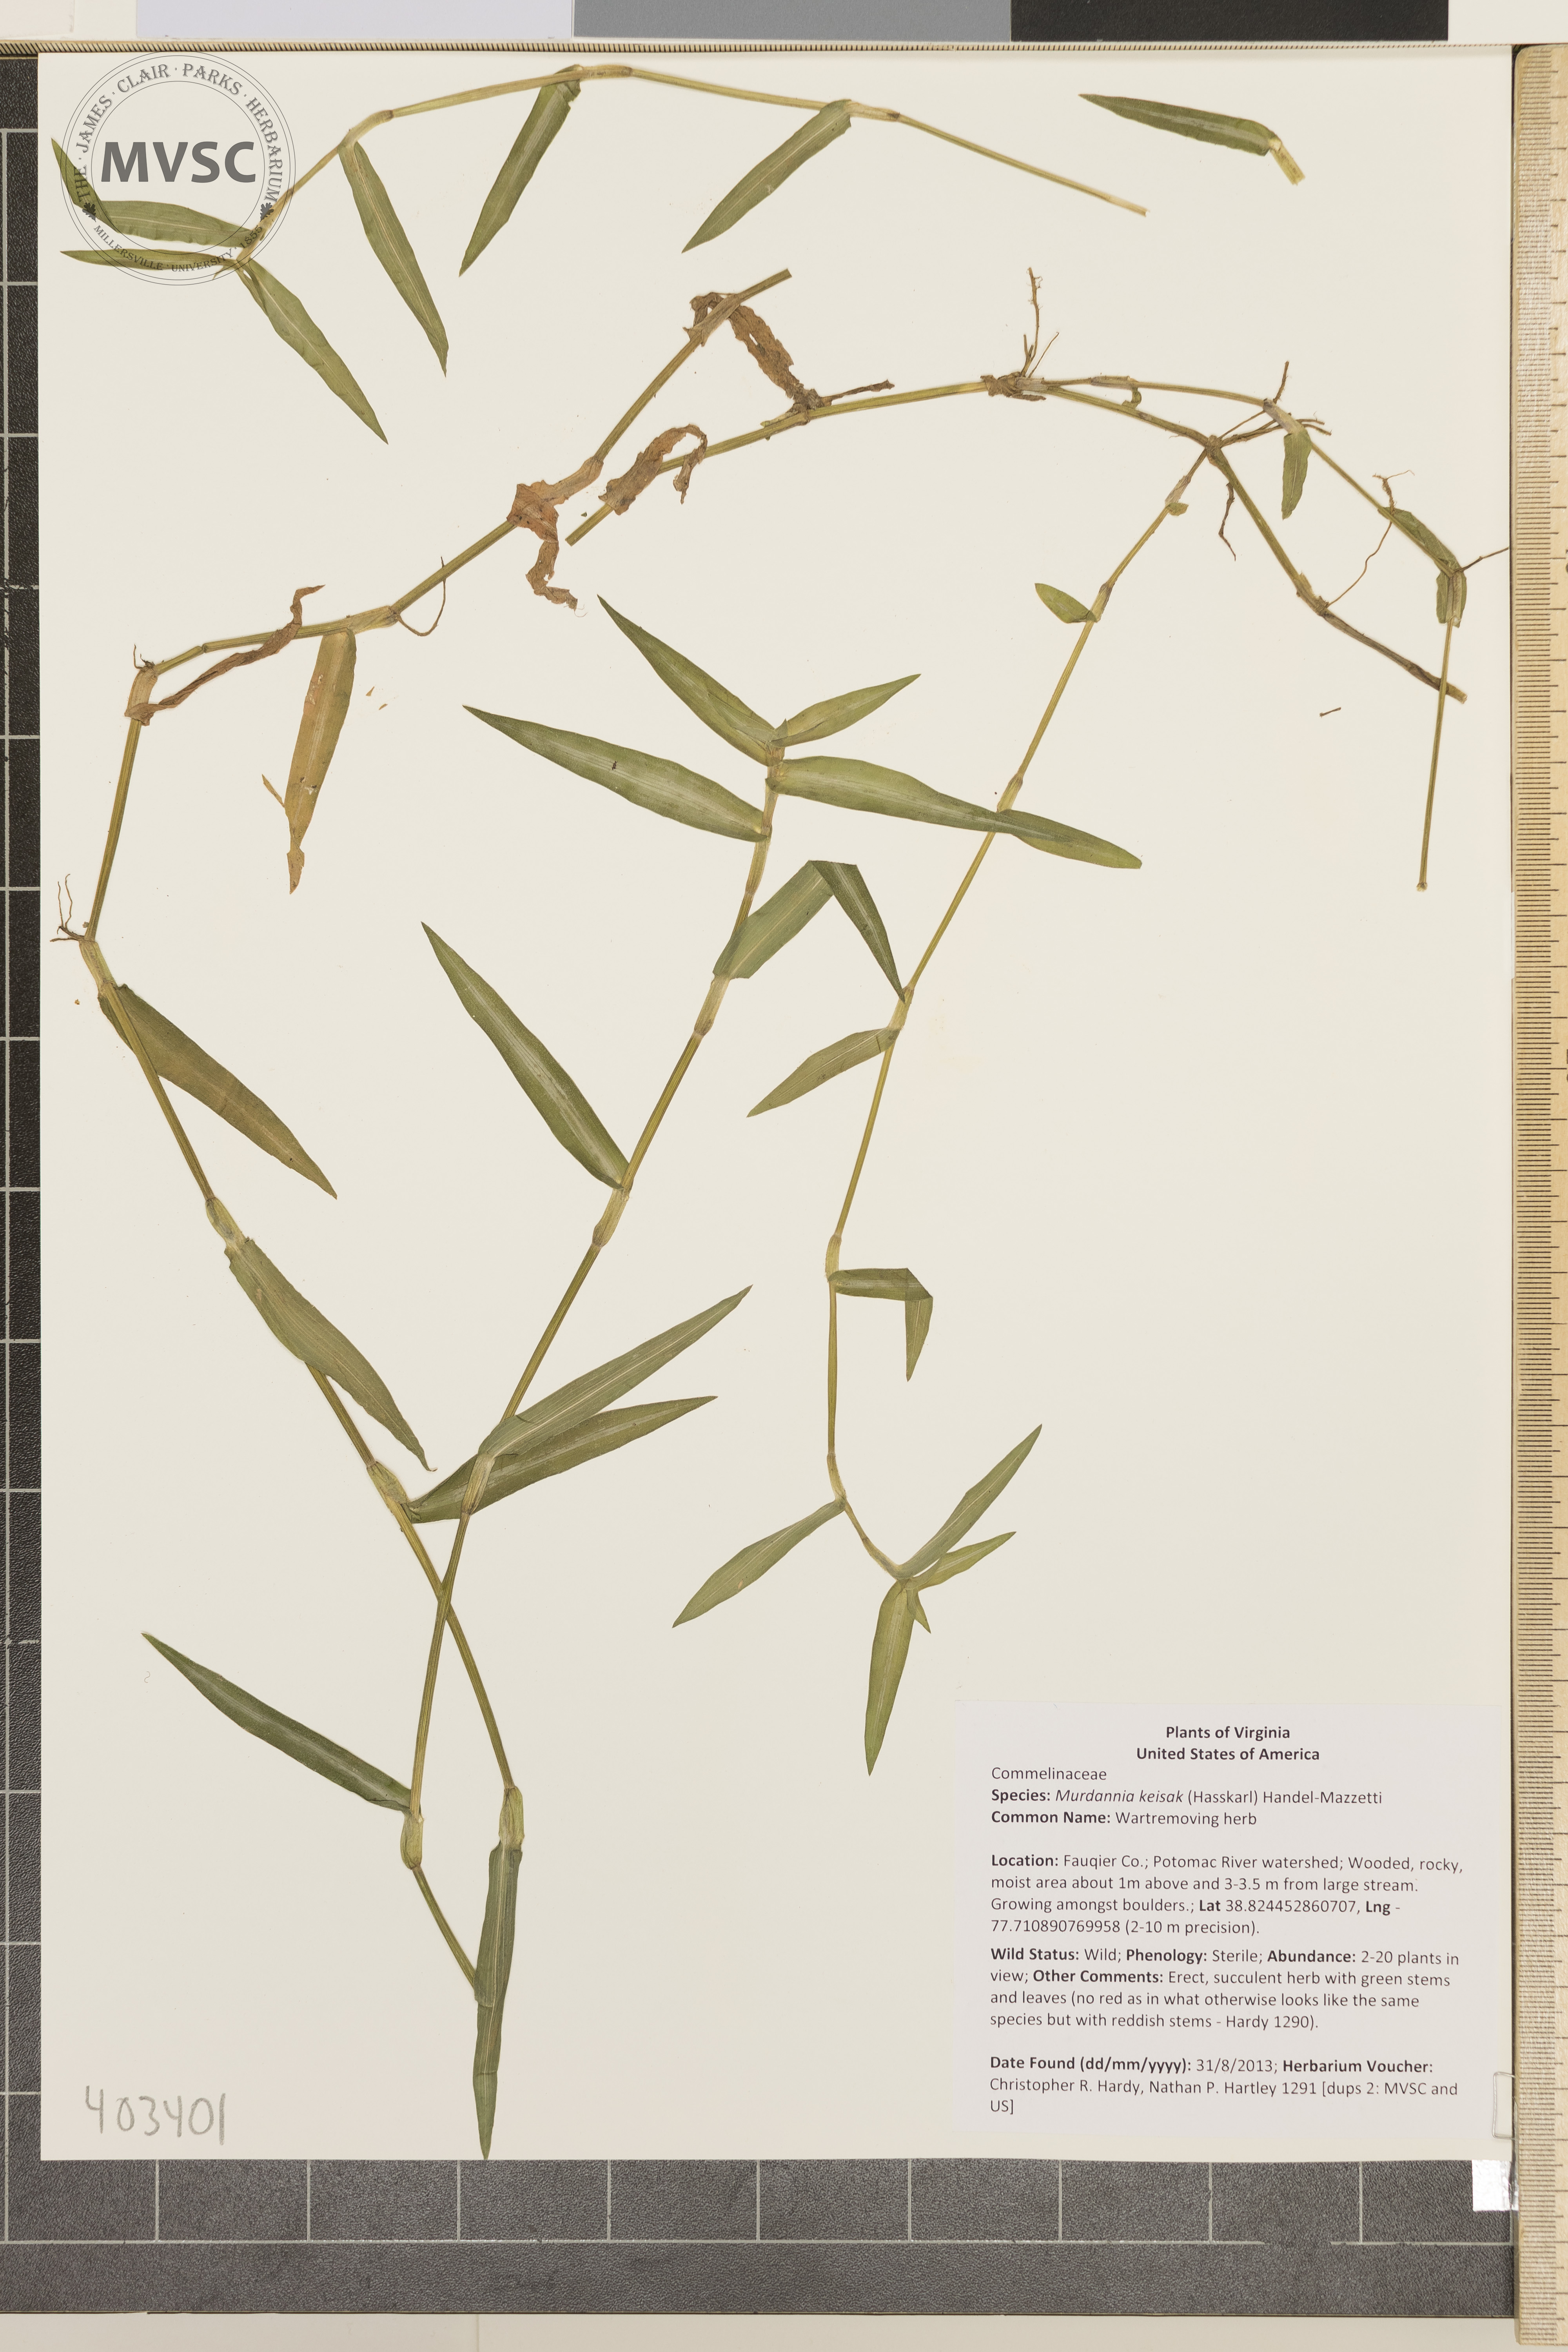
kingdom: Plantae
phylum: Tracheophyta
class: Liliopsida
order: Commelinales
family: Commelinaceae
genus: Murdannia
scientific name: Murdannia keisak
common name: Wartremoving herb
